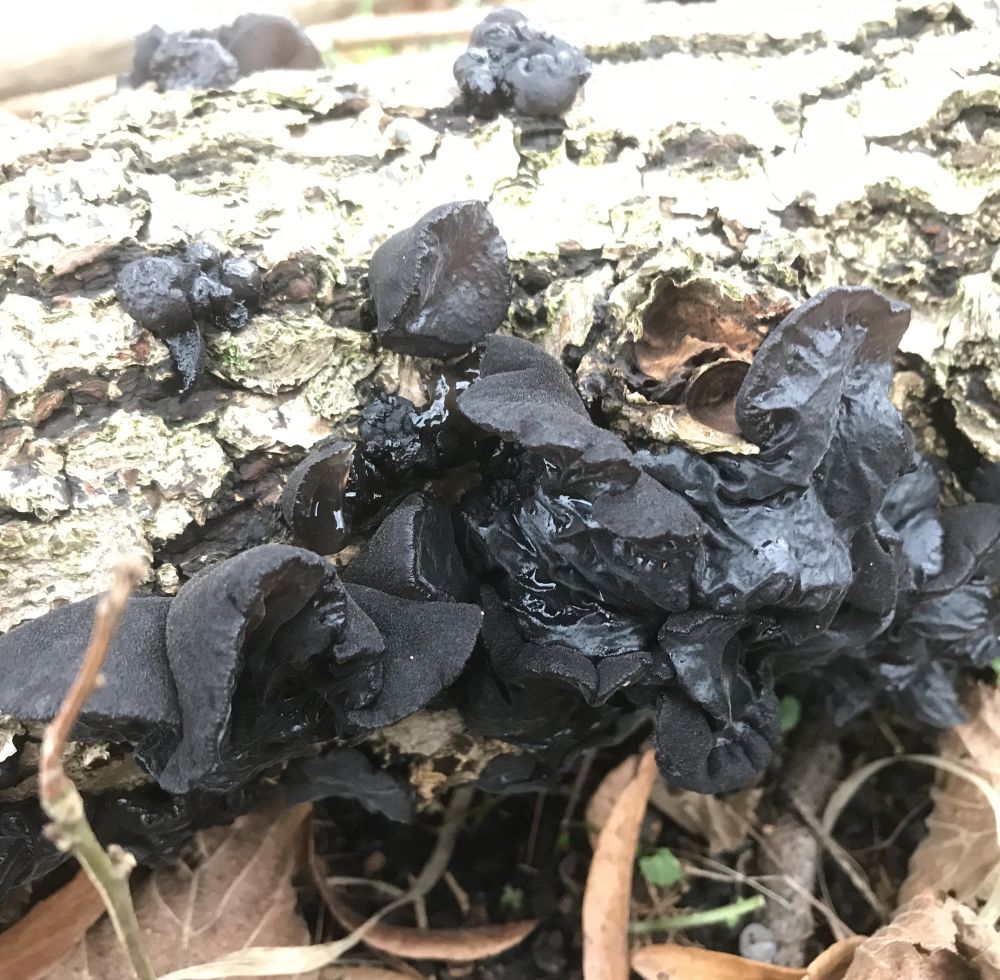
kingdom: Fungi
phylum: Basidiomycota
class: Agaricomycetes
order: Auriculariales
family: Auriculariaceae
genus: Exidia
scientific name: Exidia glandulosa
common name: ege-bævretop
